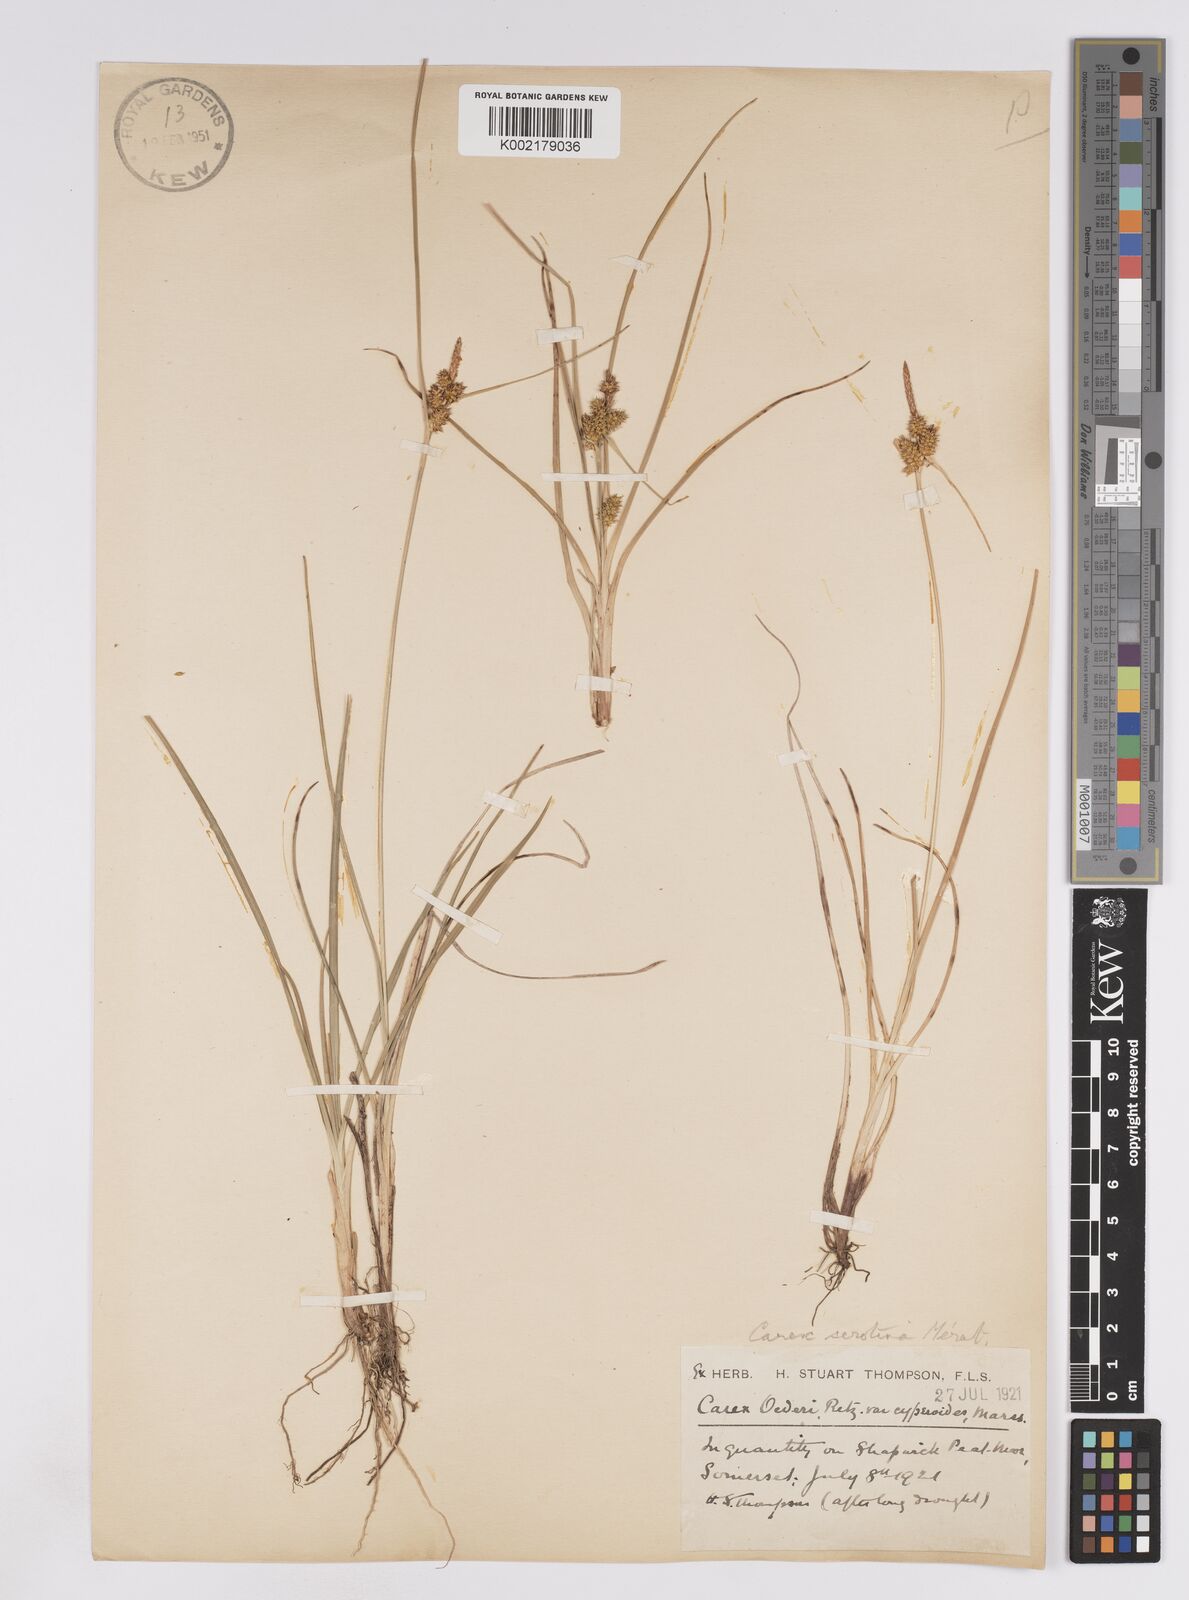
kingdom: Plantae
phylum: Tracheophyta
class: Liliopsida
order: Poales
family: Cyperaceae
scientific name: Cyperaceae
